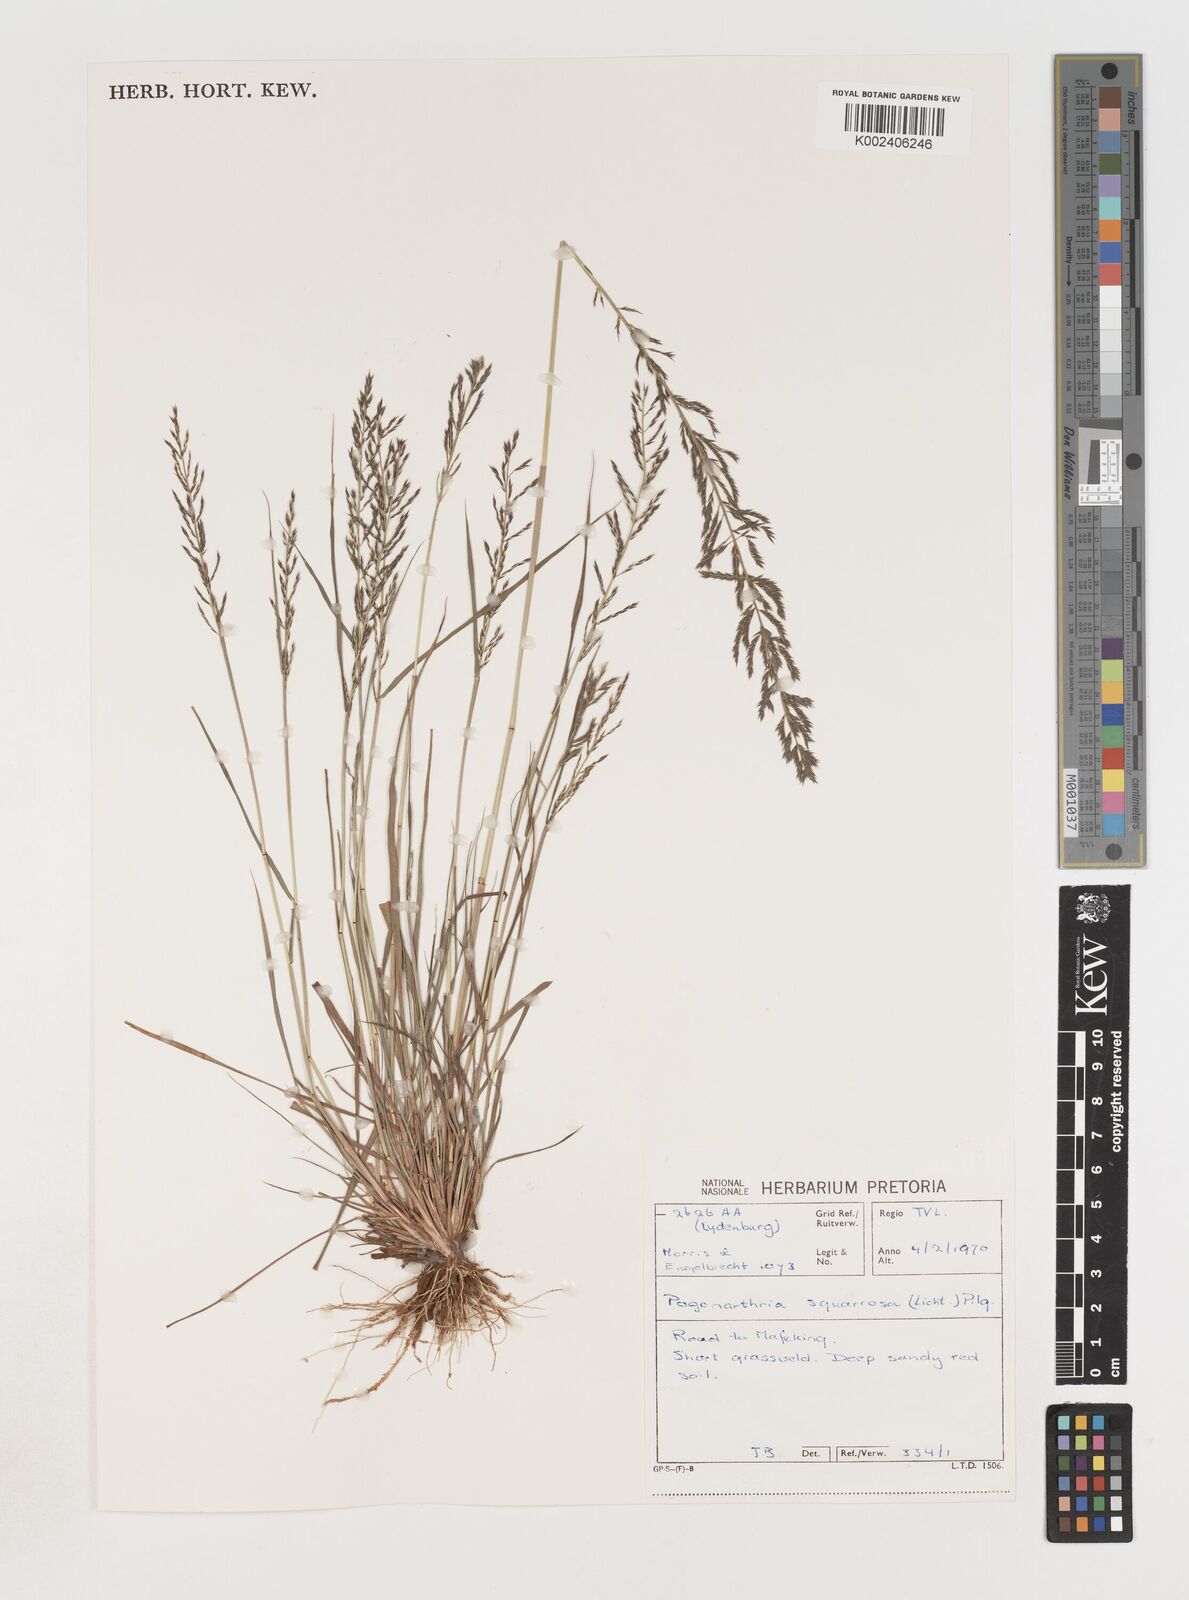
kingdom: Plantae
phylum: Tracheophyta
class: Liliopsida
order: Poales
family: Poaceae
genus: Pogonarthria
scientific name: Pogonarthria squarrosa
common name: Grass
